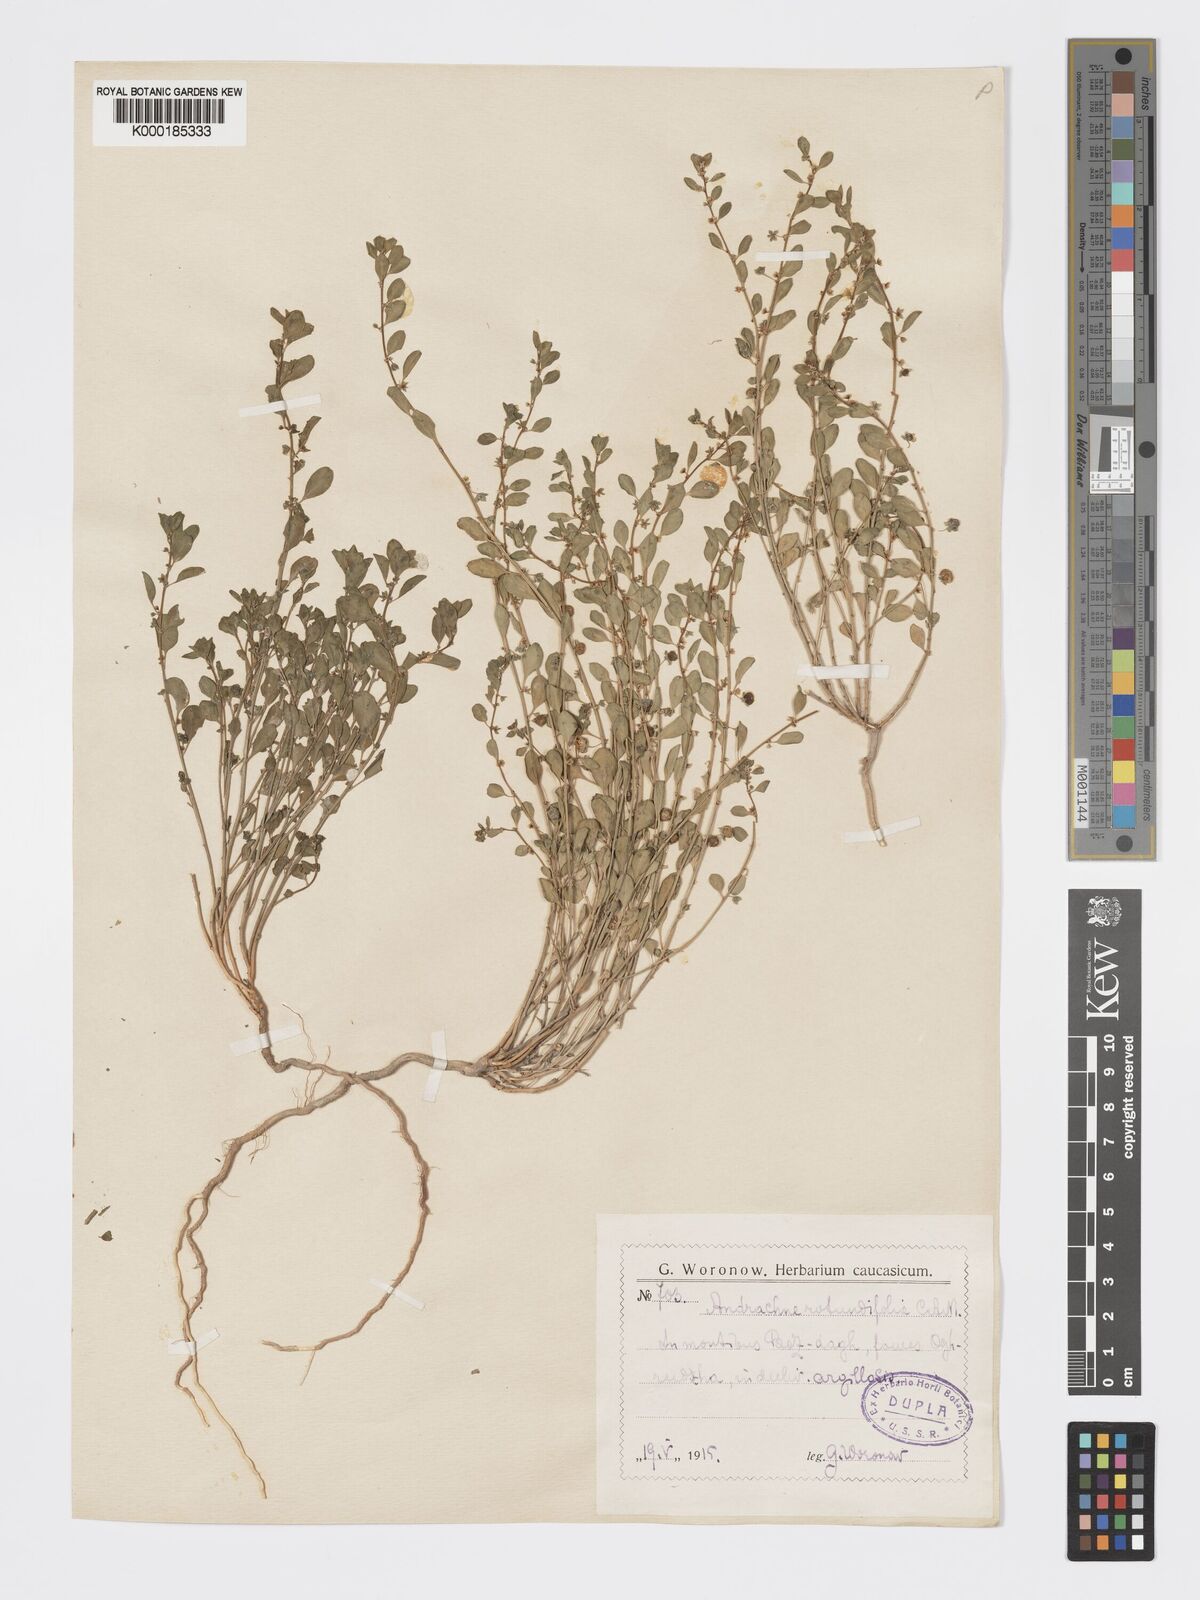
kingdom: Plantae
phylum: Tracheophyta
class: Magnoliopsida
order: Malpighiales
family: Phyllanthaceae
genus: Andrachne
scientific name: Andrachne telephioides
